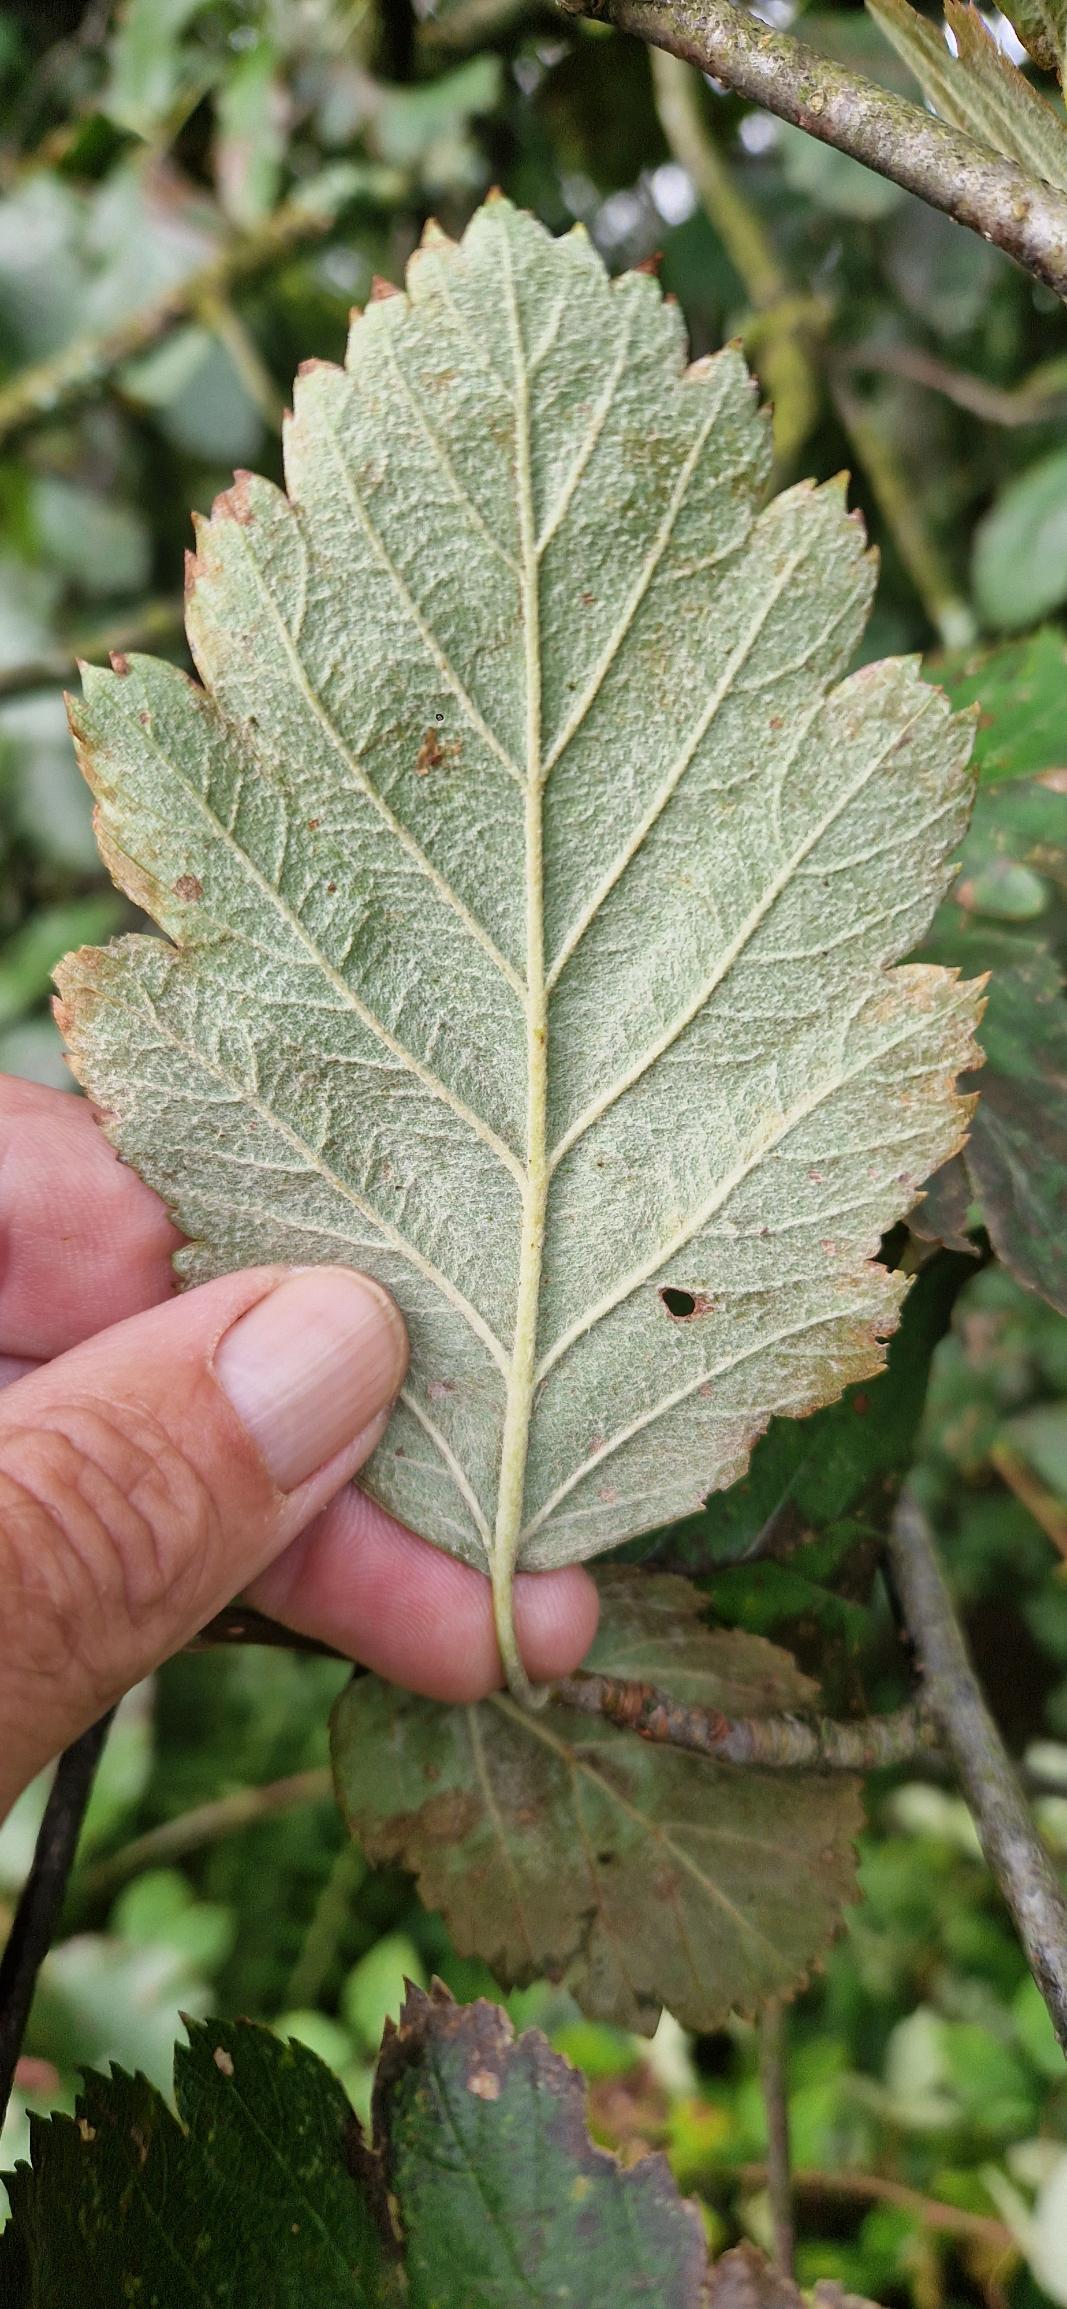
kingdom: Plantae
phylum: Tracheophyta
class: Magnoliopsida
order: Rosales
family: Rosaceae
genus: Scandosorbus
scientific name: Scandosorbus intermedia
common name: Selje-røn
